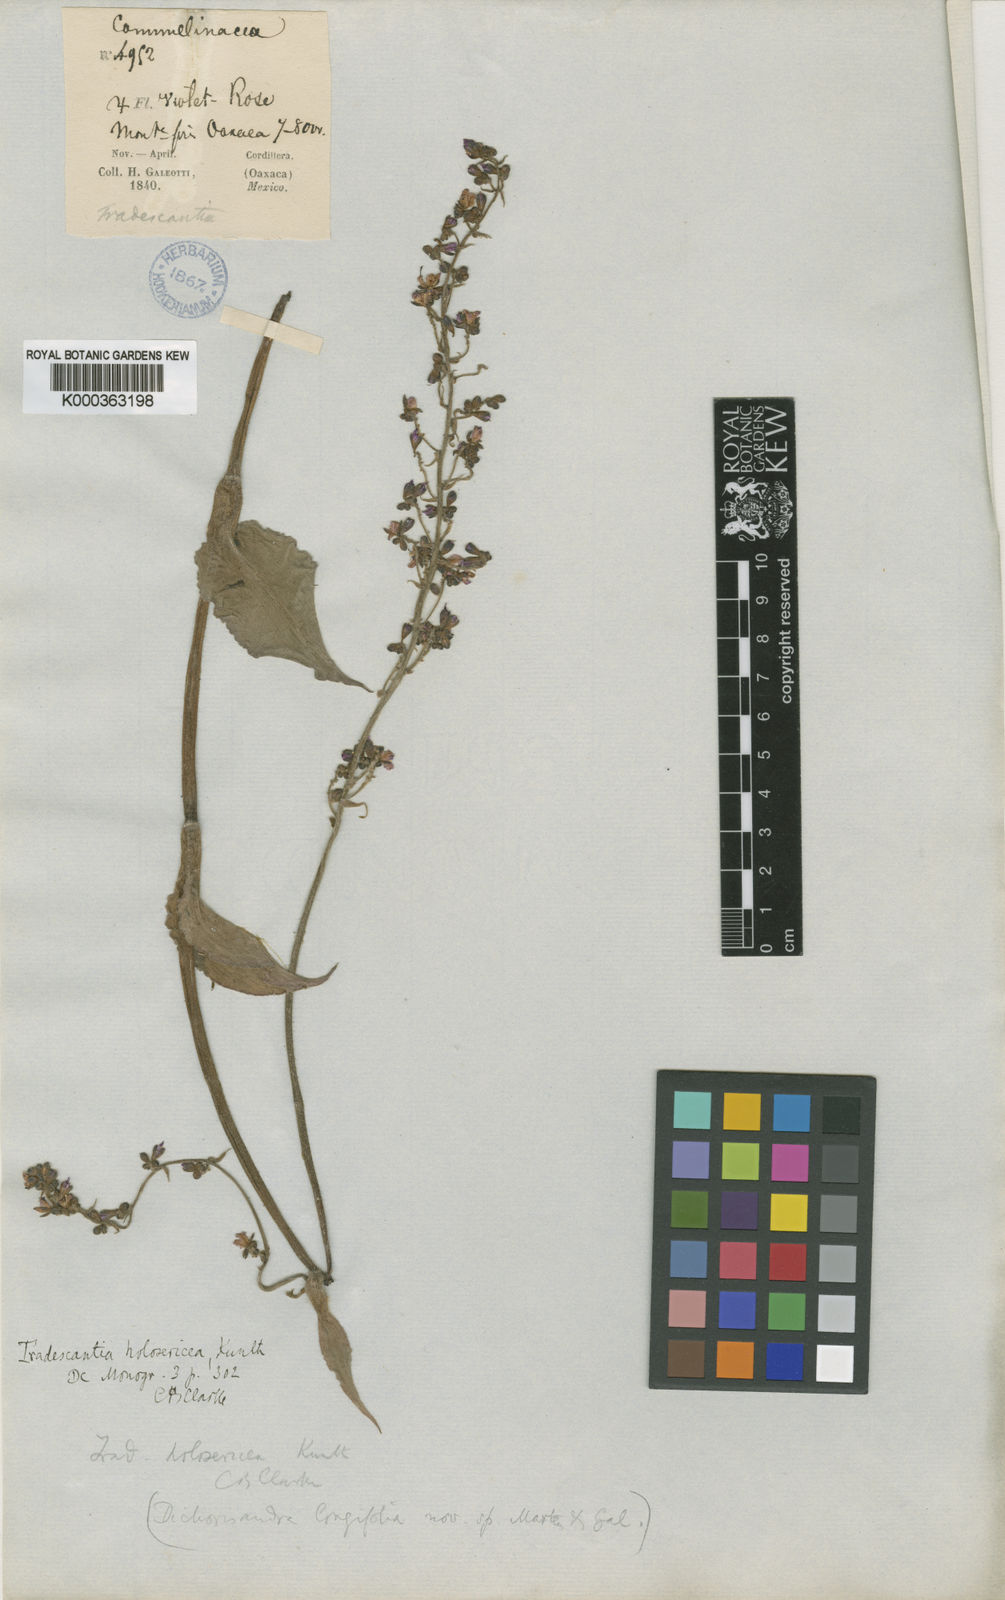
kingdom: Plantae
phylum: Tracheophyta
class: Liliopsida
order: Commelinales
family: Commelinaceae
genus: Thyrsanthemum
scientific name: Thyrsanthemum
